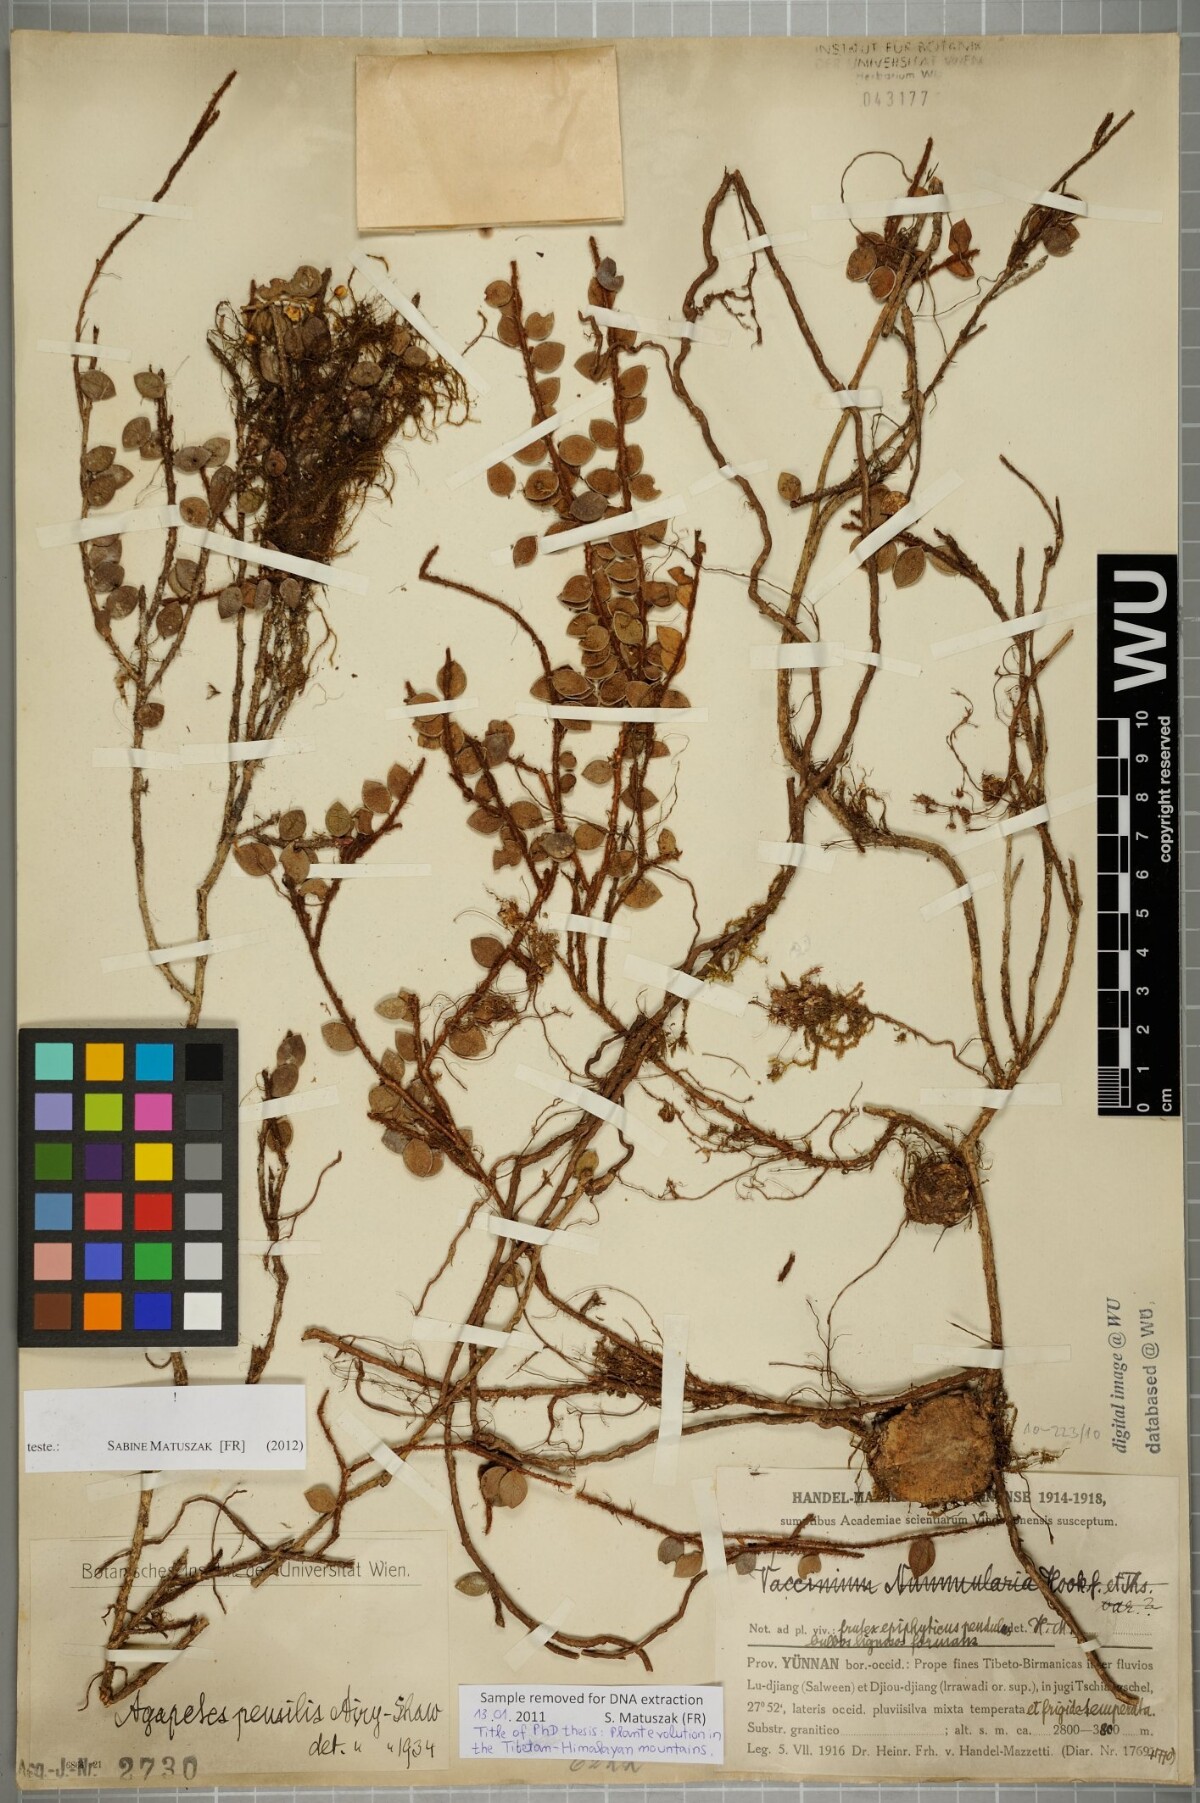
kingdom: Plantae
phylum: Tracheophyta
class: Magnoliopsida
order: Ericales
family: Ericaceae
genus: Agapetes
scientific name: Agapetes pensilis
